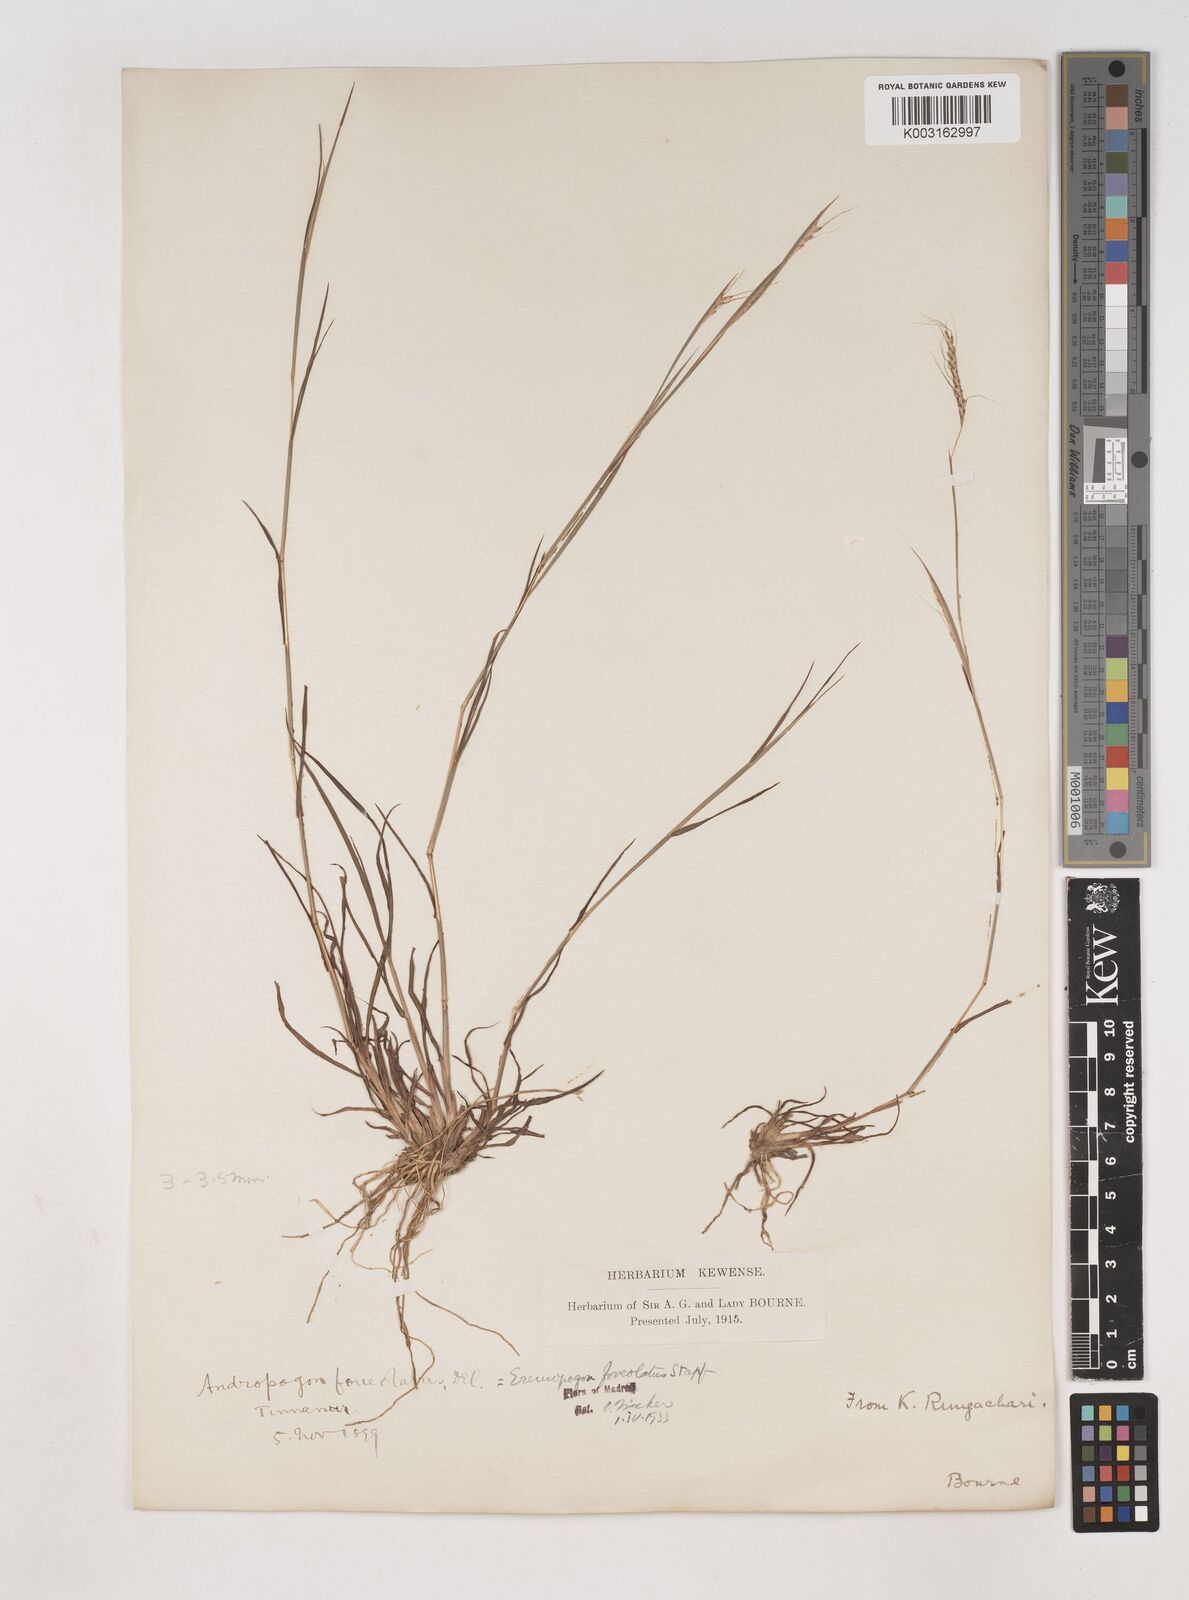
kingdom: Plantae
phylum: Tracheophyta
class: Liliopsida
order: Poales
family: Poaceae
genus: Dichanthium
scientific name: Dichanthium foveolatum
